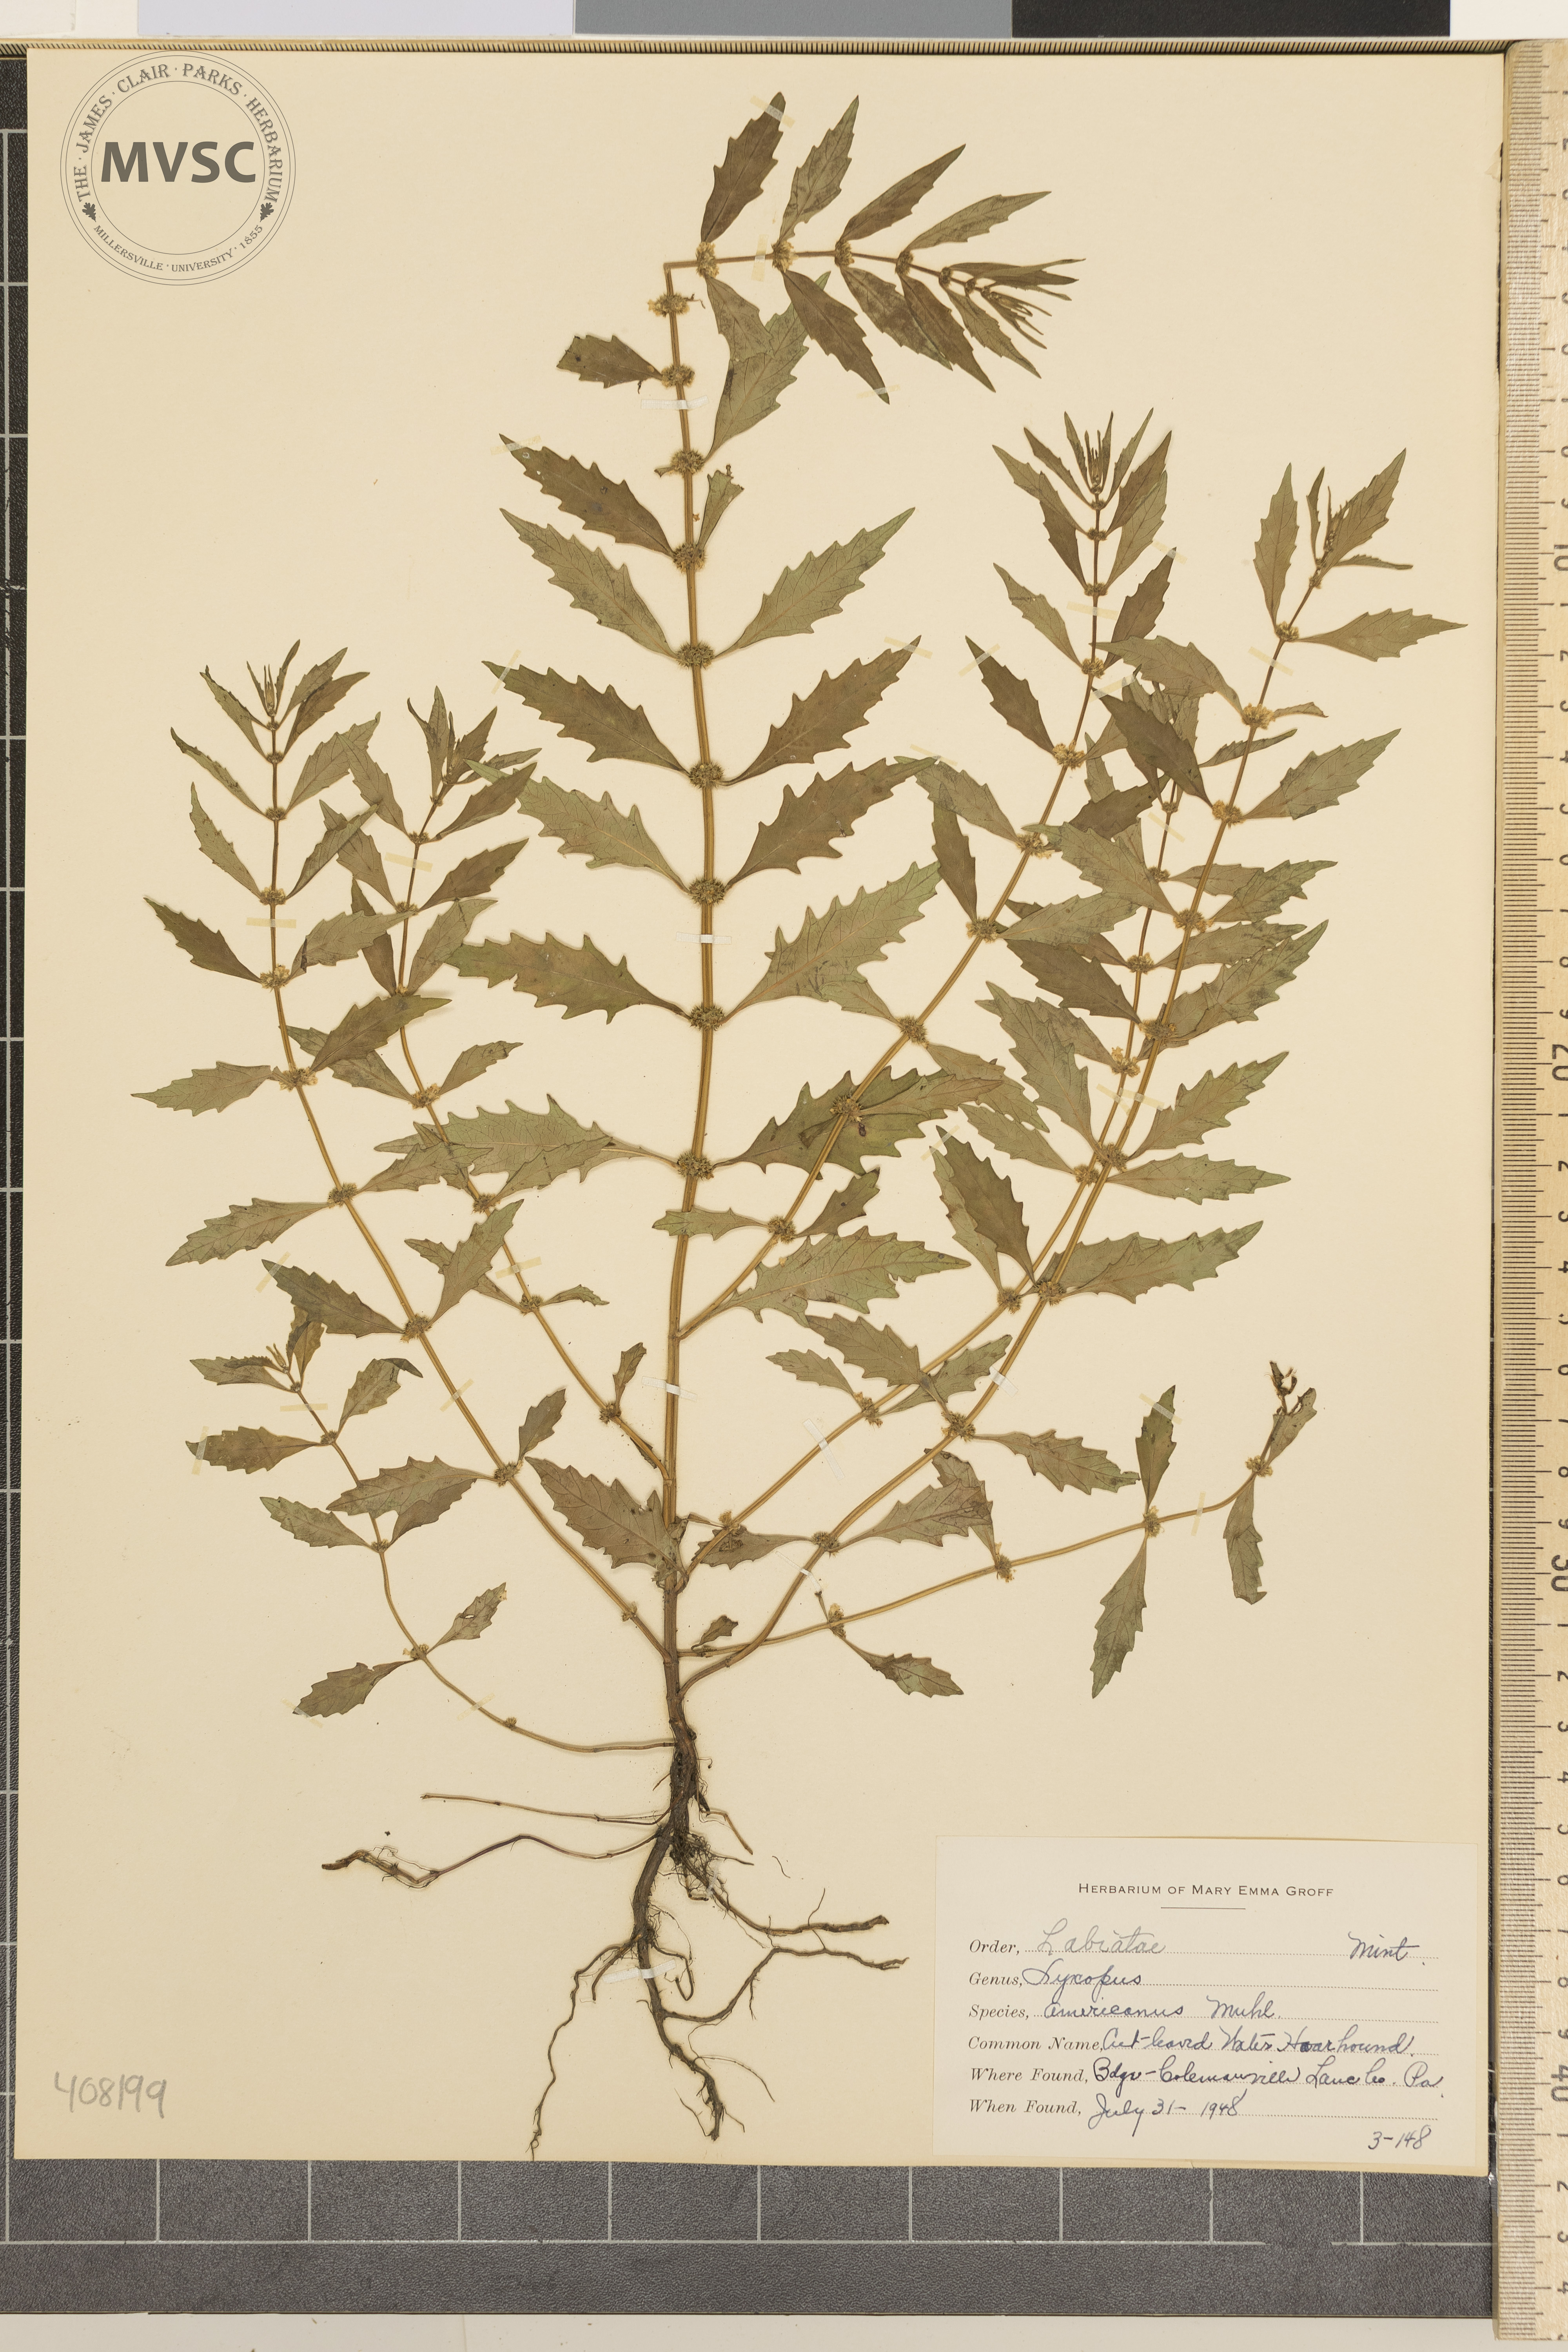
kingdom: Plantae
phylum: Tracheophyta
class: Magnoliopsida
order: Lamiales
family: Lamiaceae
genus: Lycopus
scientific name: Lycopus americanus
